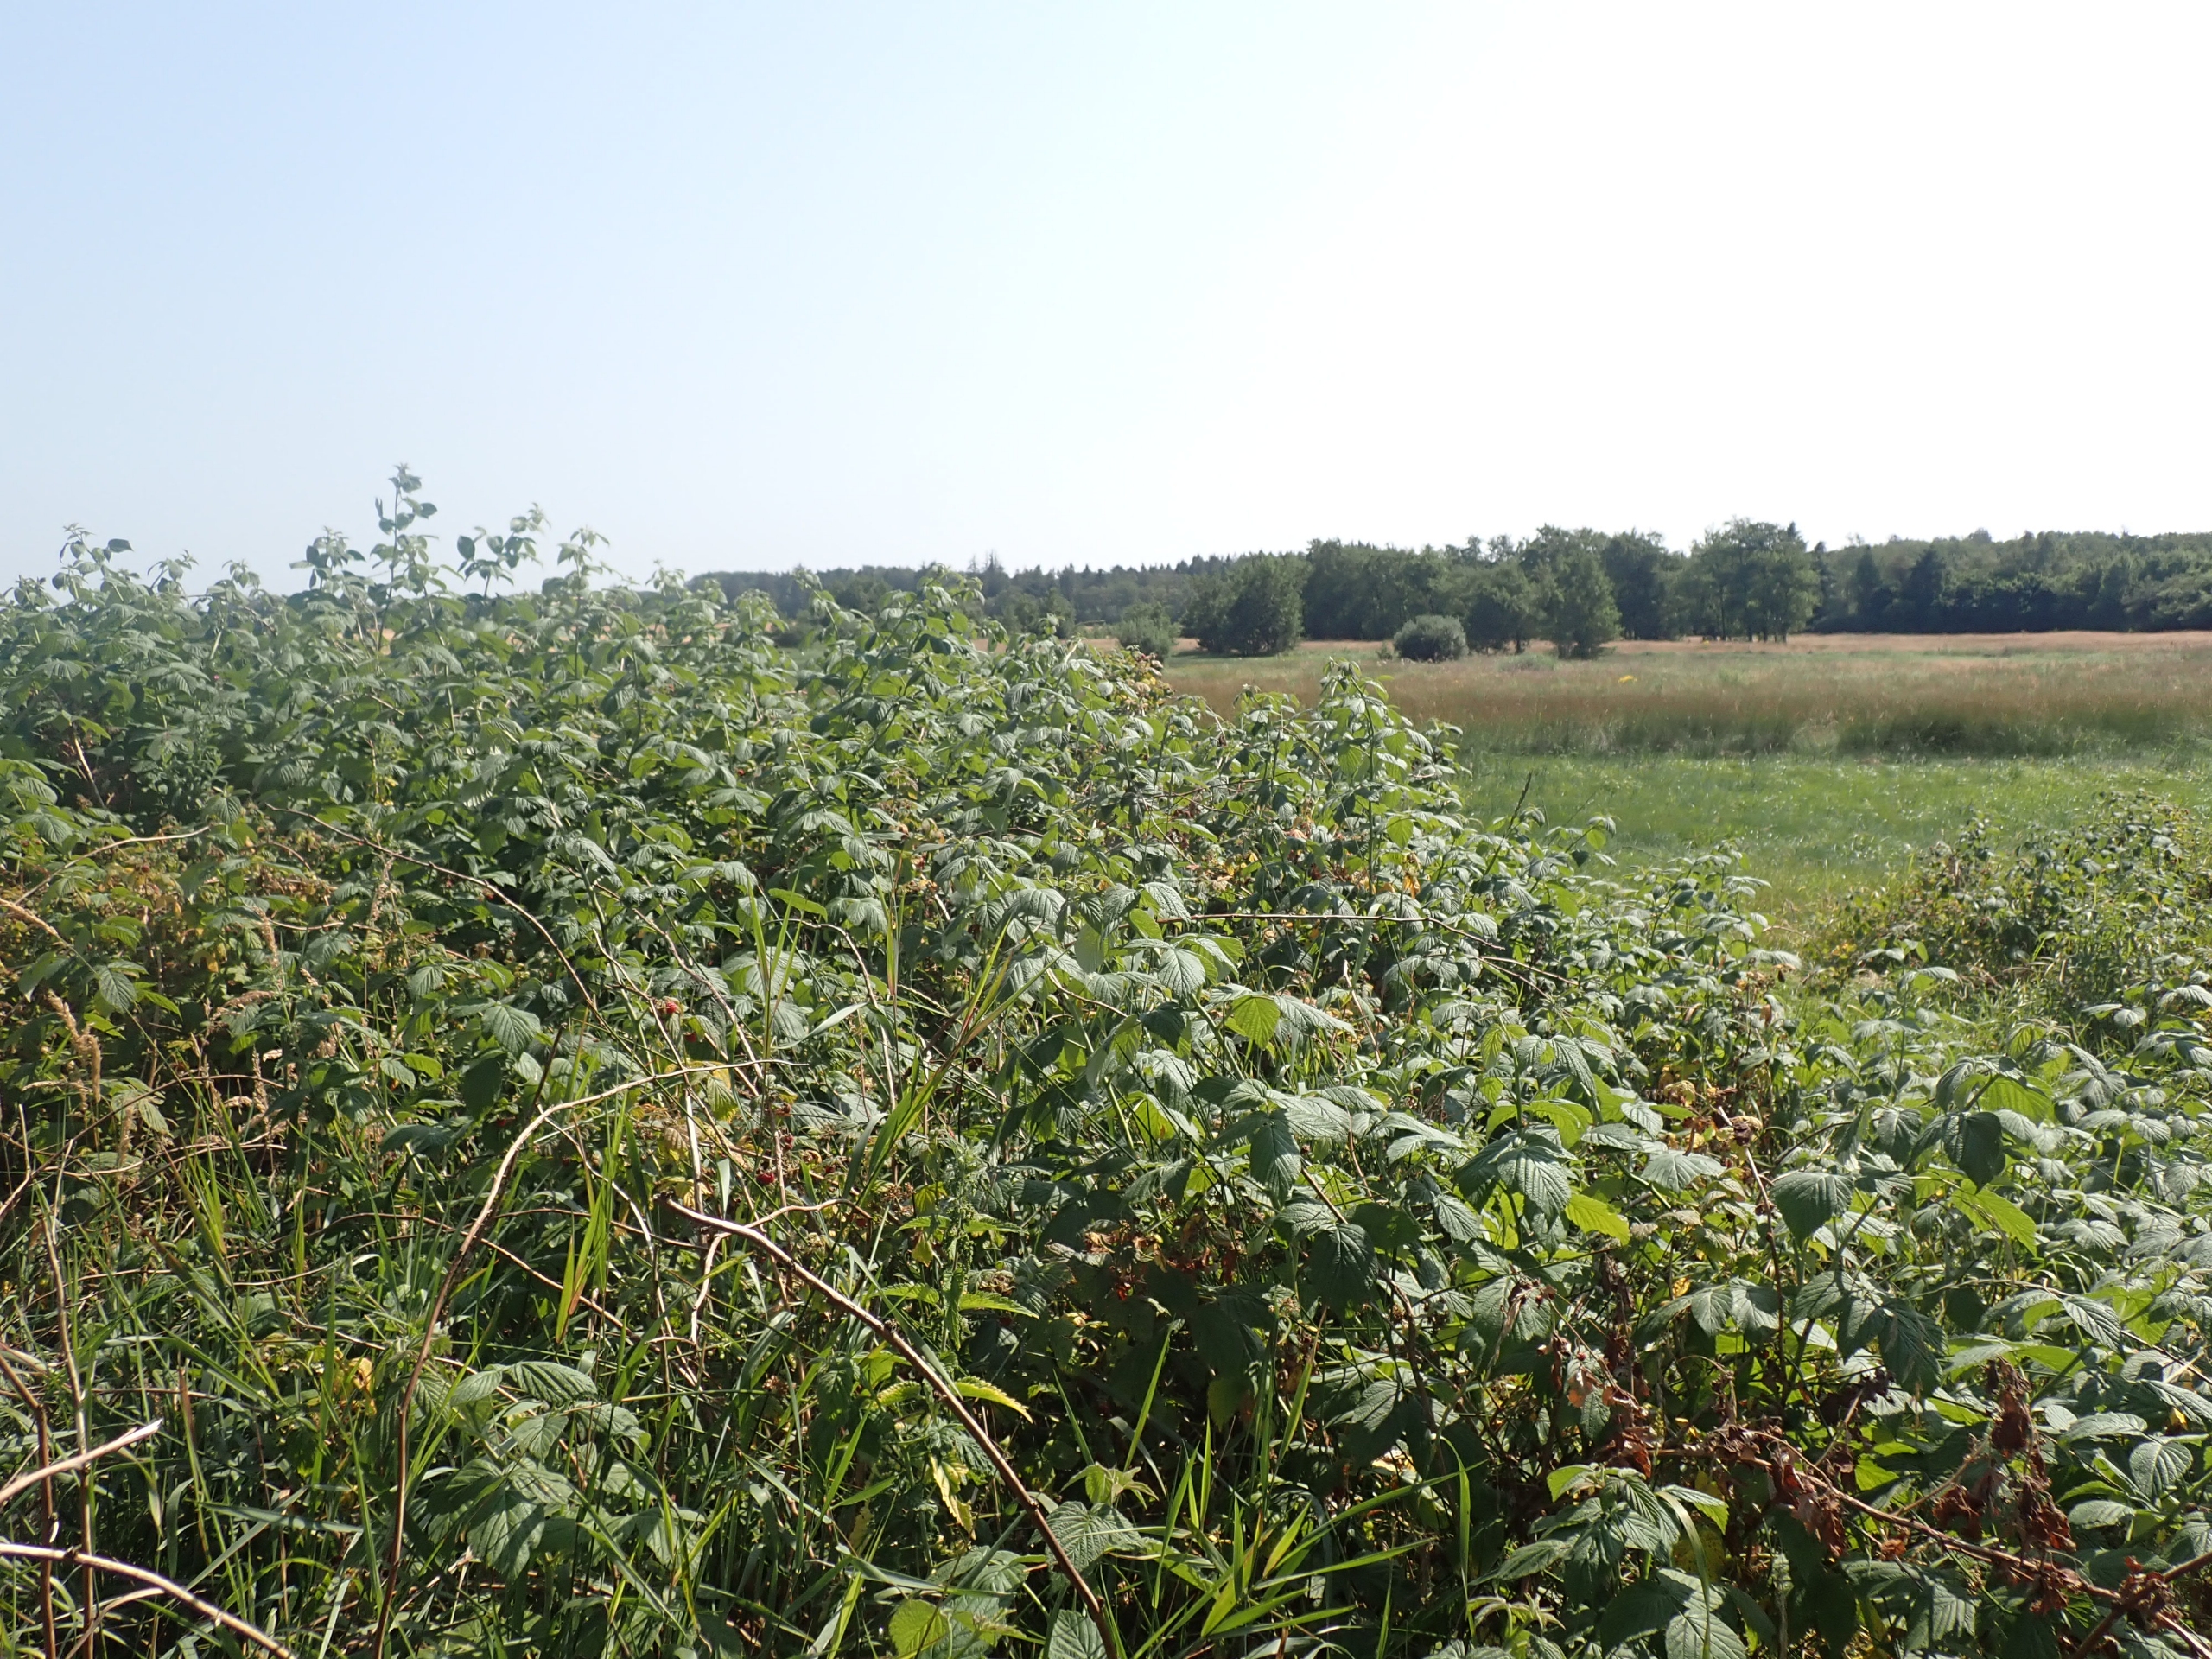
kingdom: Plantae
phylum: Tracheophyta
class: Magnoliopsida
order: Rosales
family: Rosaceae
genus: Rubus
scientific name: Rubus idaeus
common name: Hindbær
